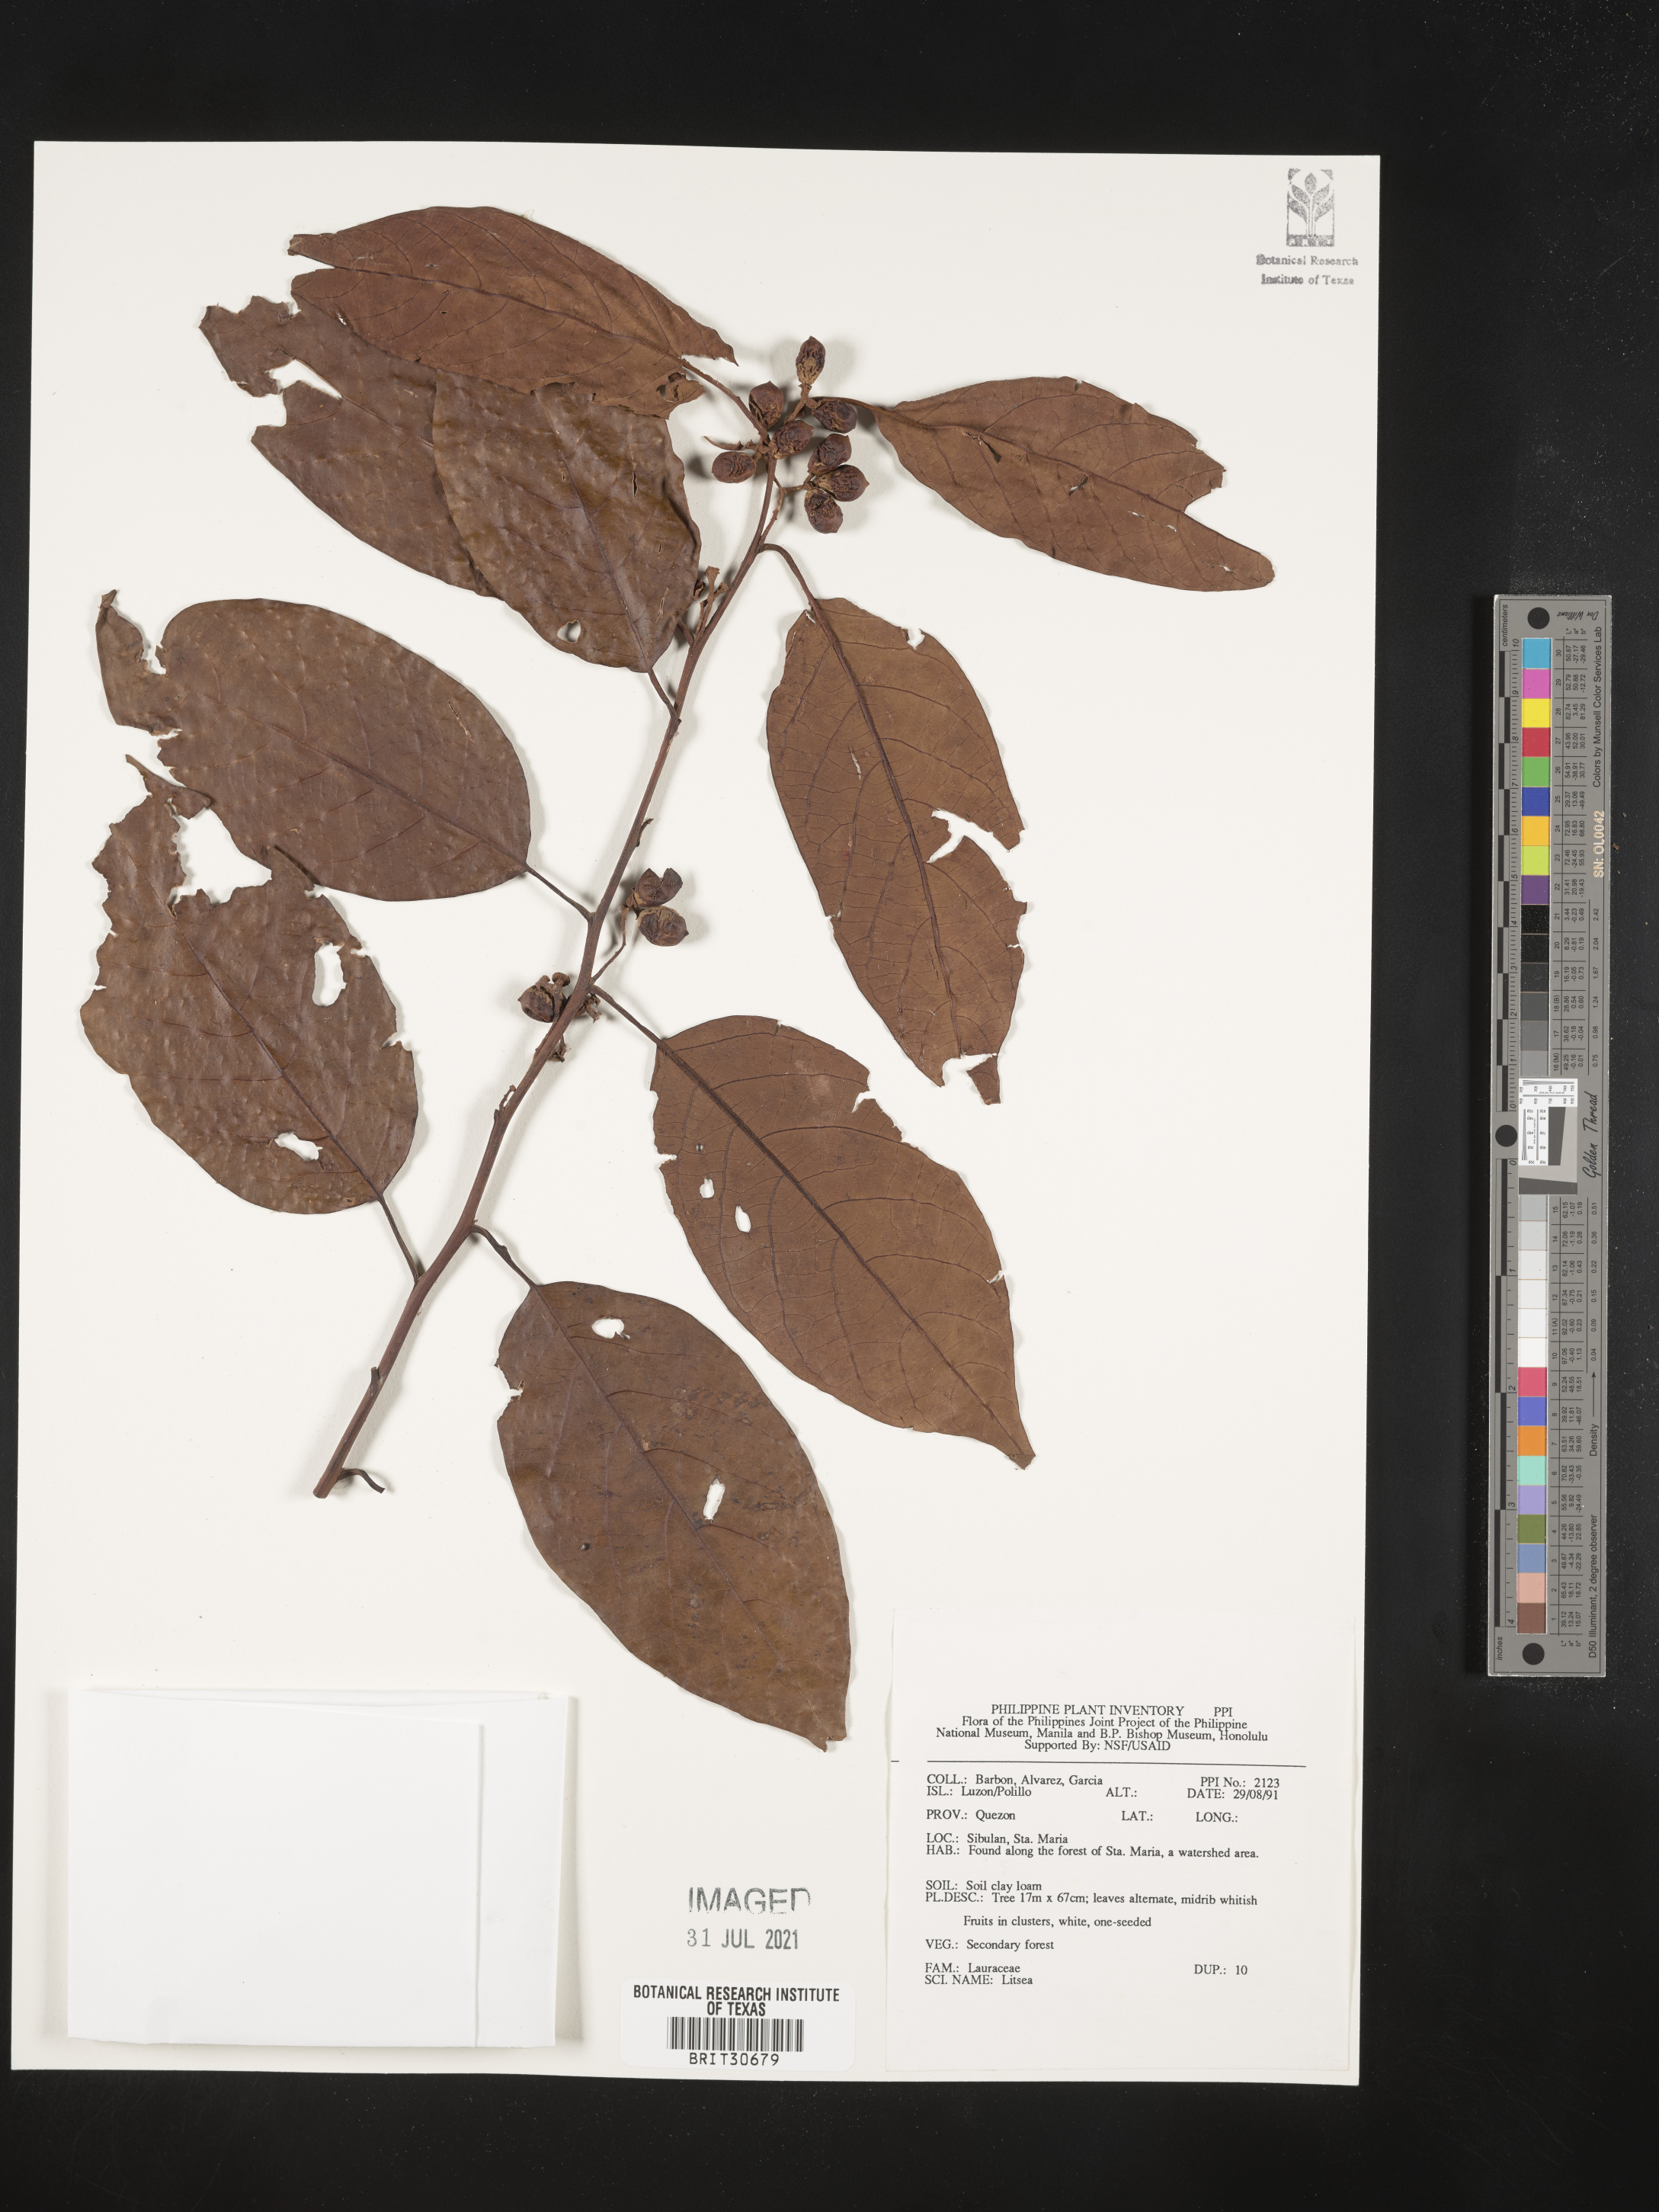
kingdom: Plantae
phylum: Tracheophyta
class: Magnoliopsida
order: Laurales
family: Lauraceae
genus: Litsea
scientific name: Litsea
